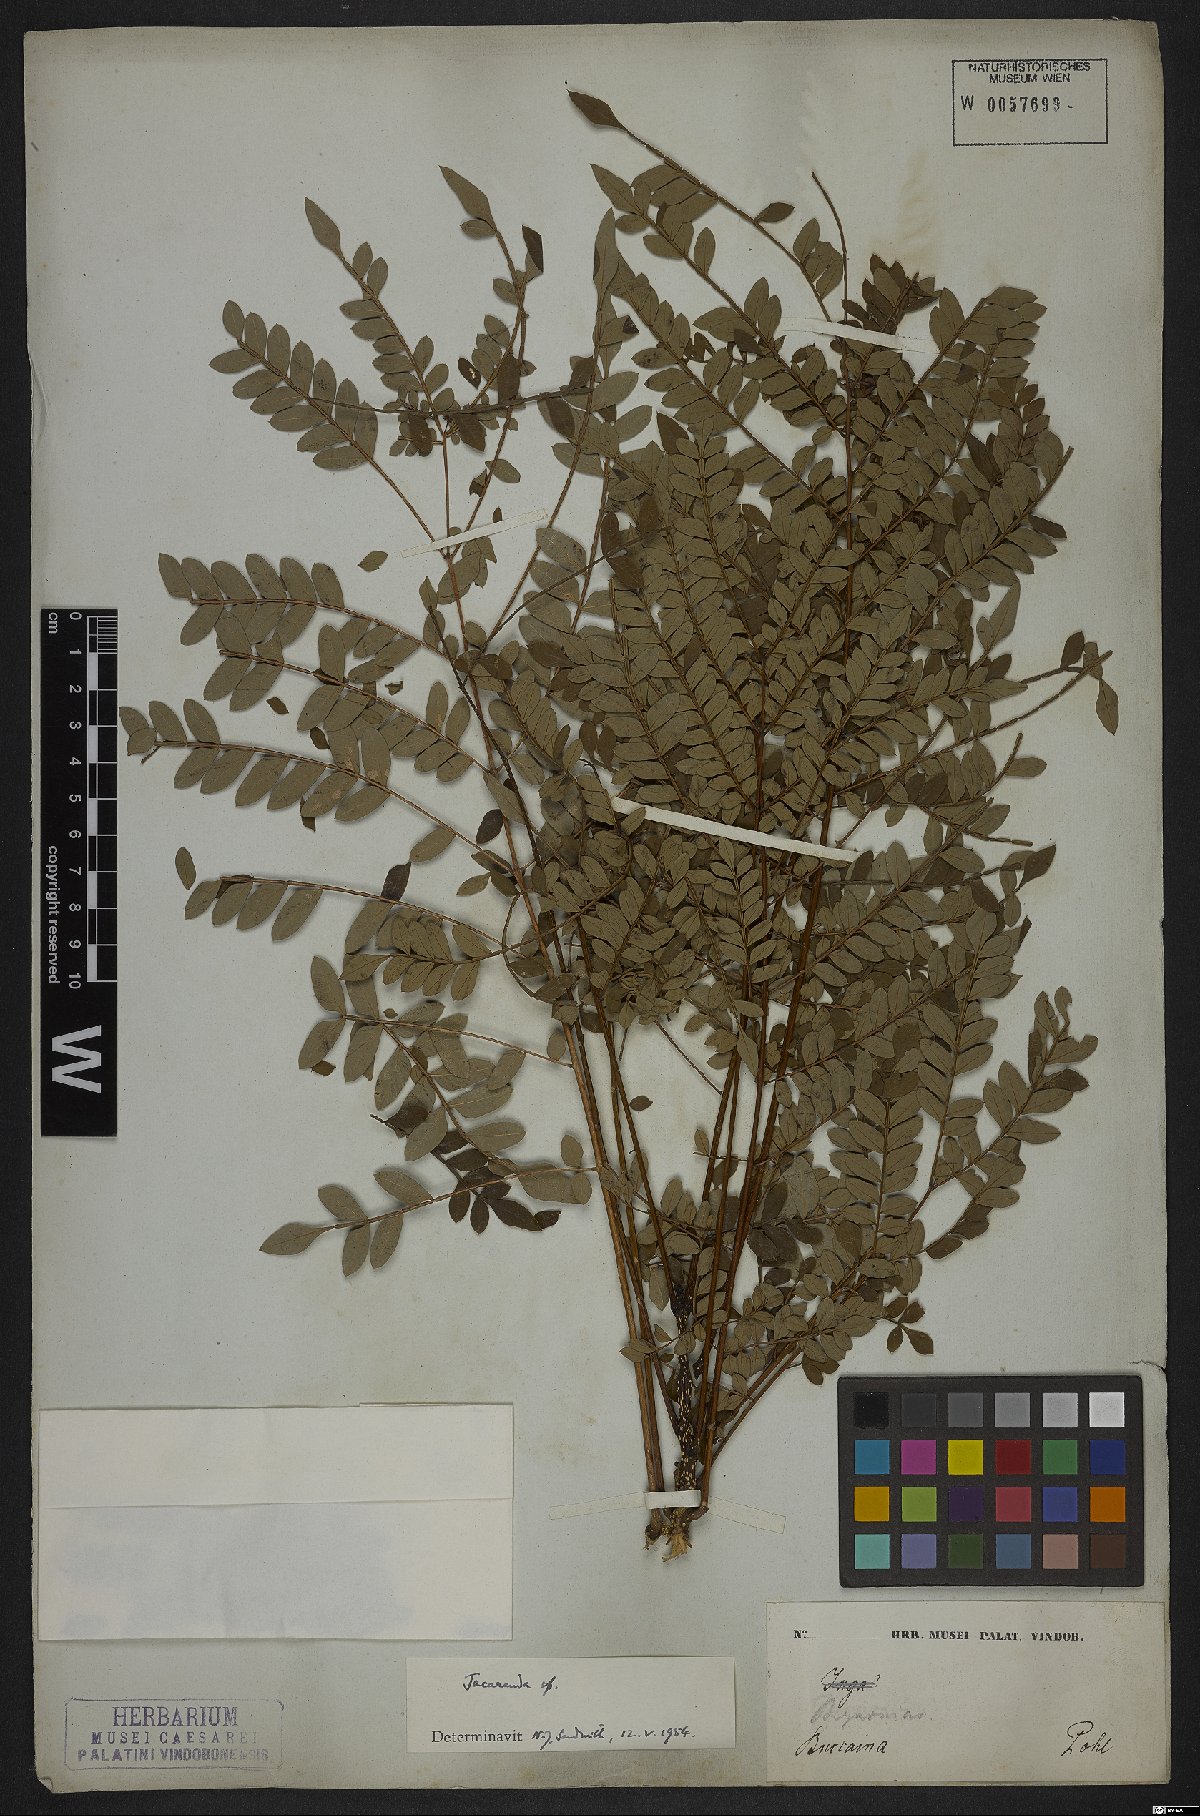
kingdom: Plantae
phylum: Tracheophyta
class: Magnoliopsida
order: Lamiales
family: Bignoniaceae
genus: Jacaranda
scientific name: Jacaranda
